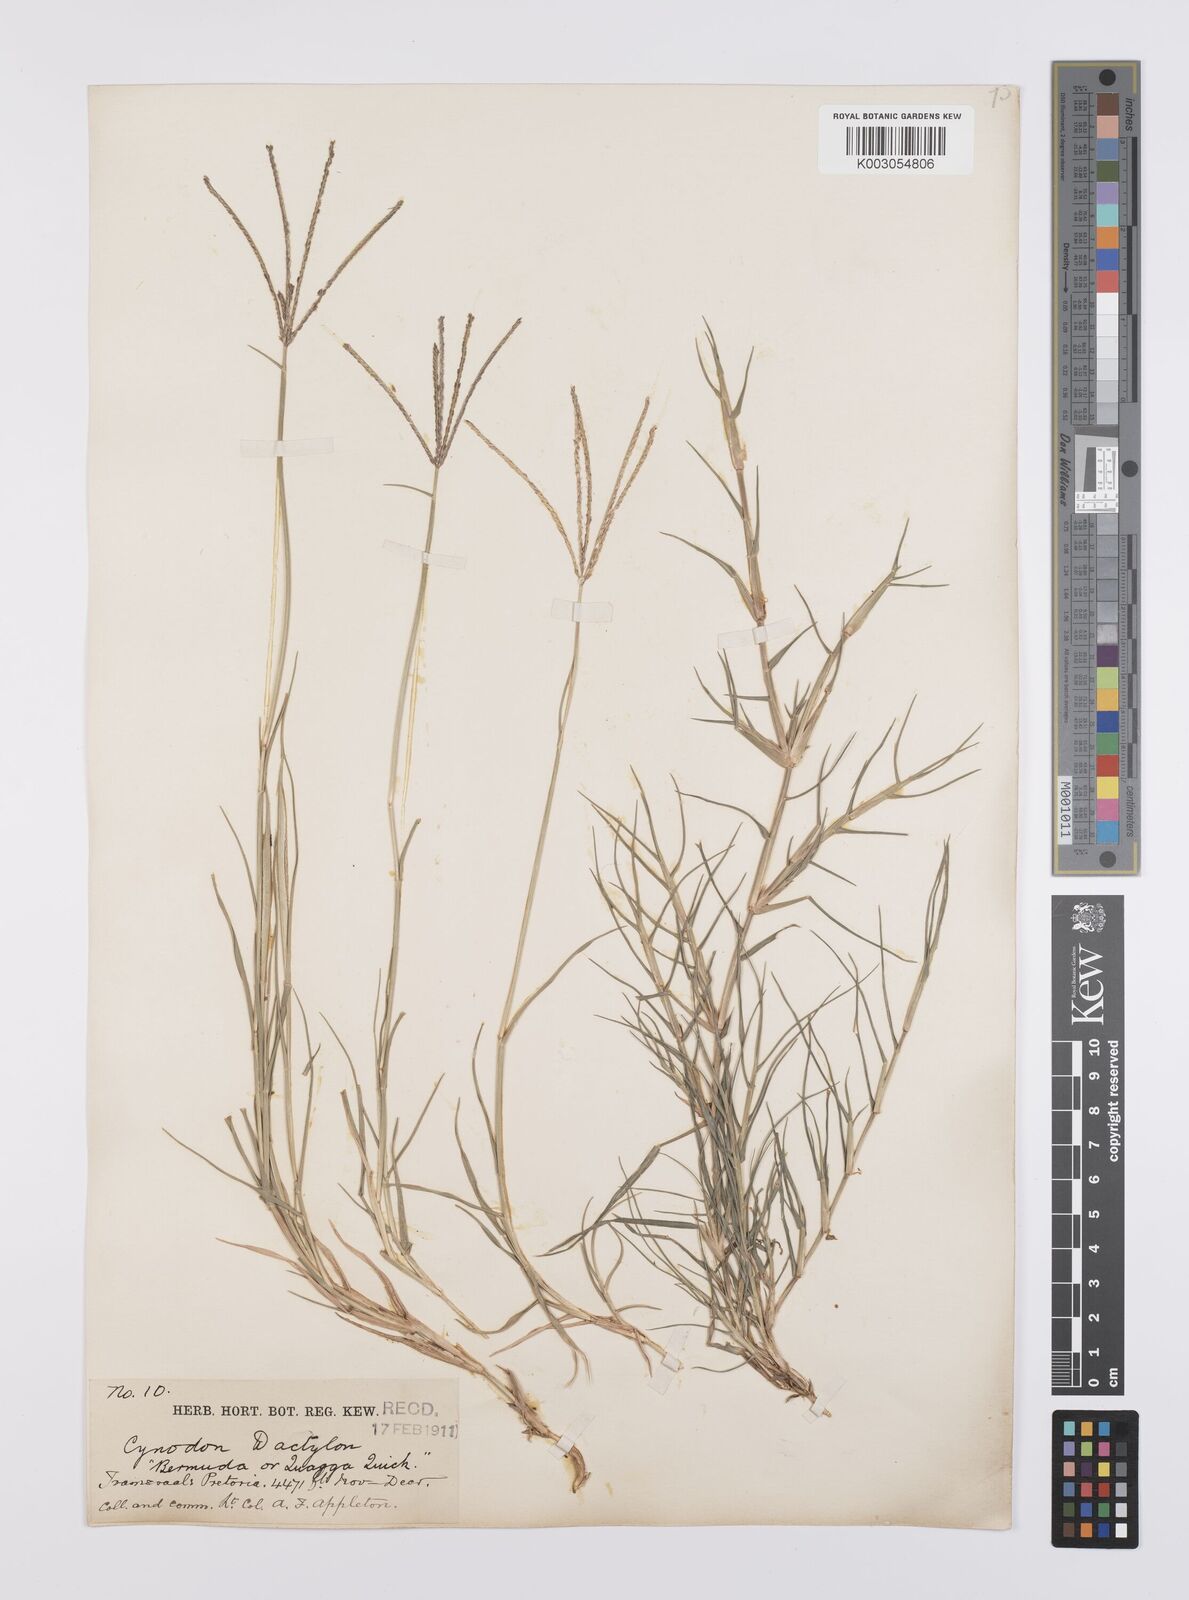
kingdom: Plantae
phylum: Tracheophyta
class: Liliopsida
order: Poales
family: Poaceae
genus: Cynodon
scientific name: Cynodon dactylon
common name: Bermuda grass
